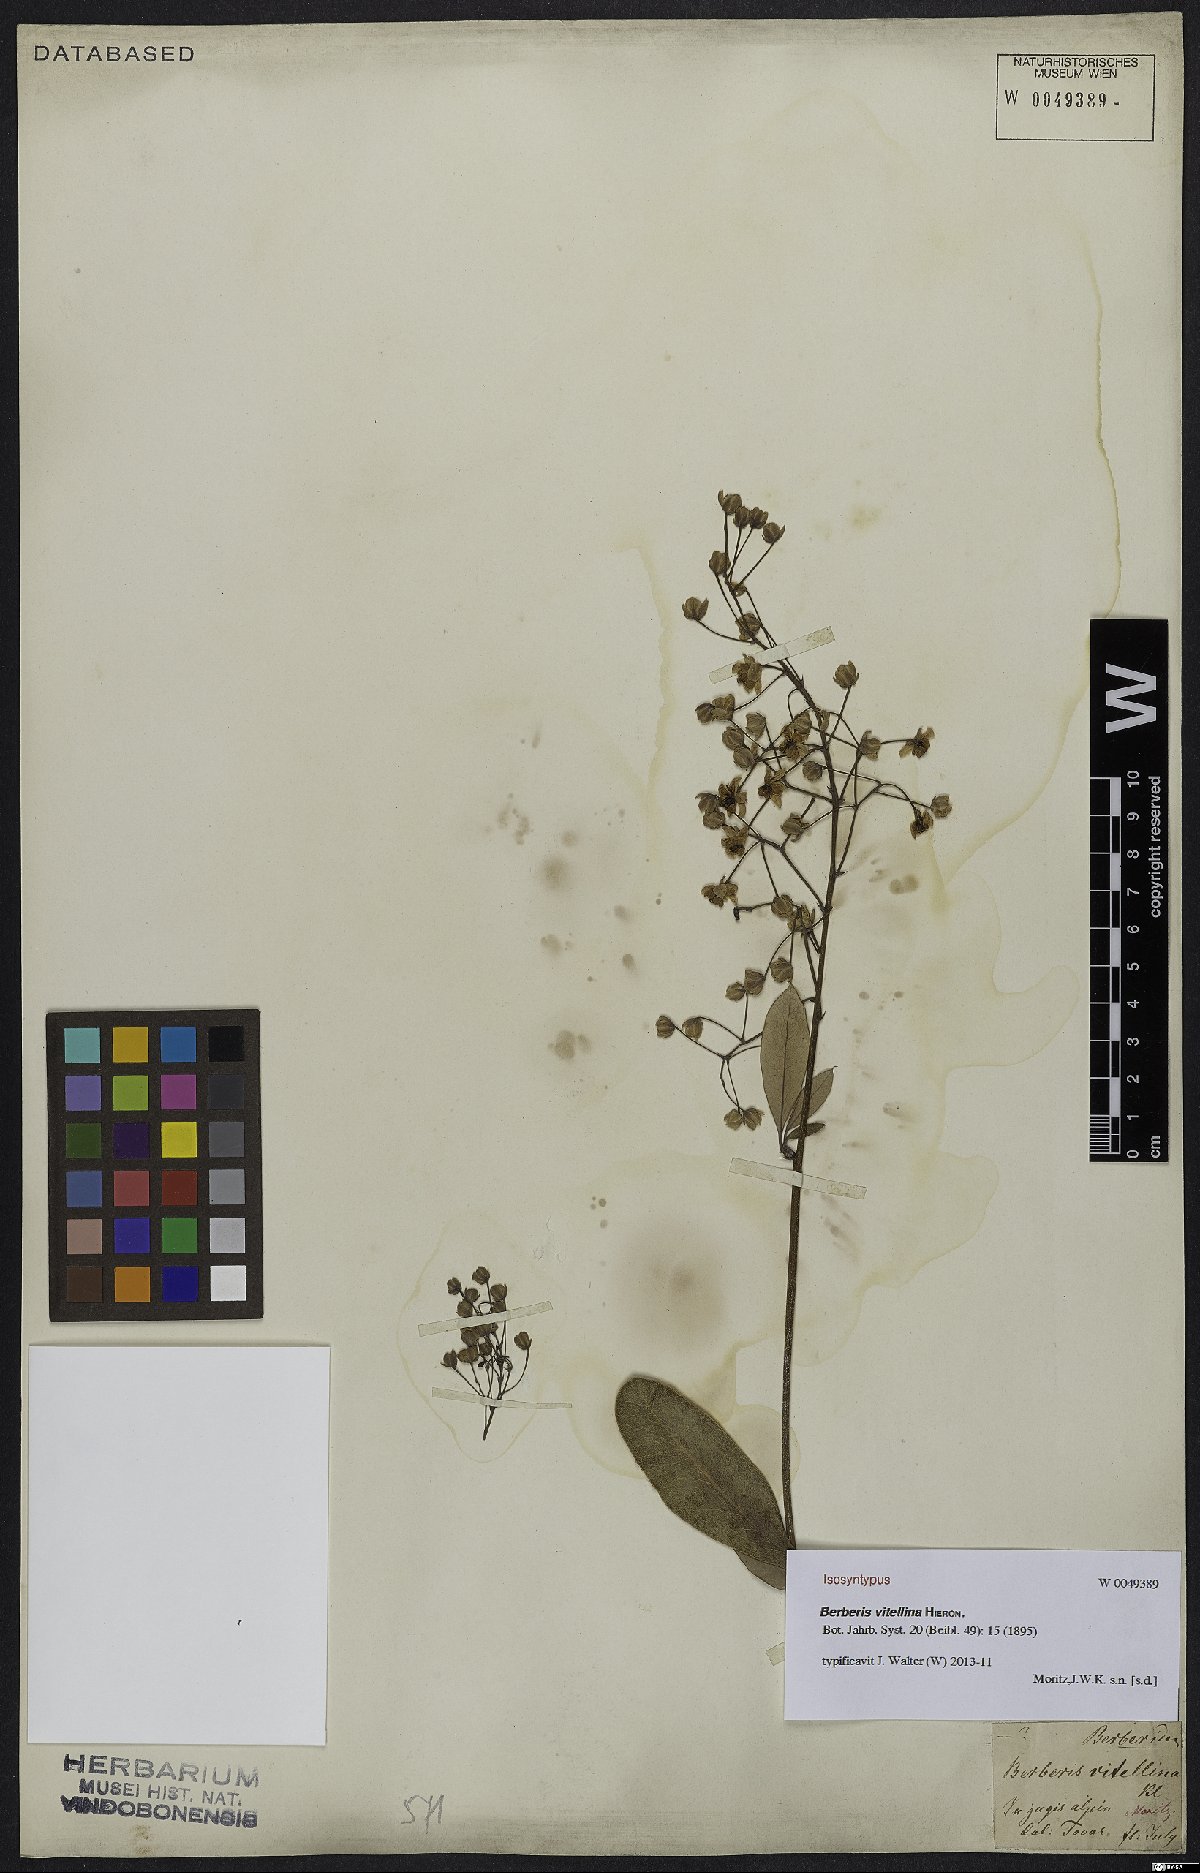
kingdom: Plantae
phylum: Tracheophyta
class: Magnoliopsida
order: Ranunculales
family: Berberidaceae
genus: Berberis
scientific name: Berberis vitellina
